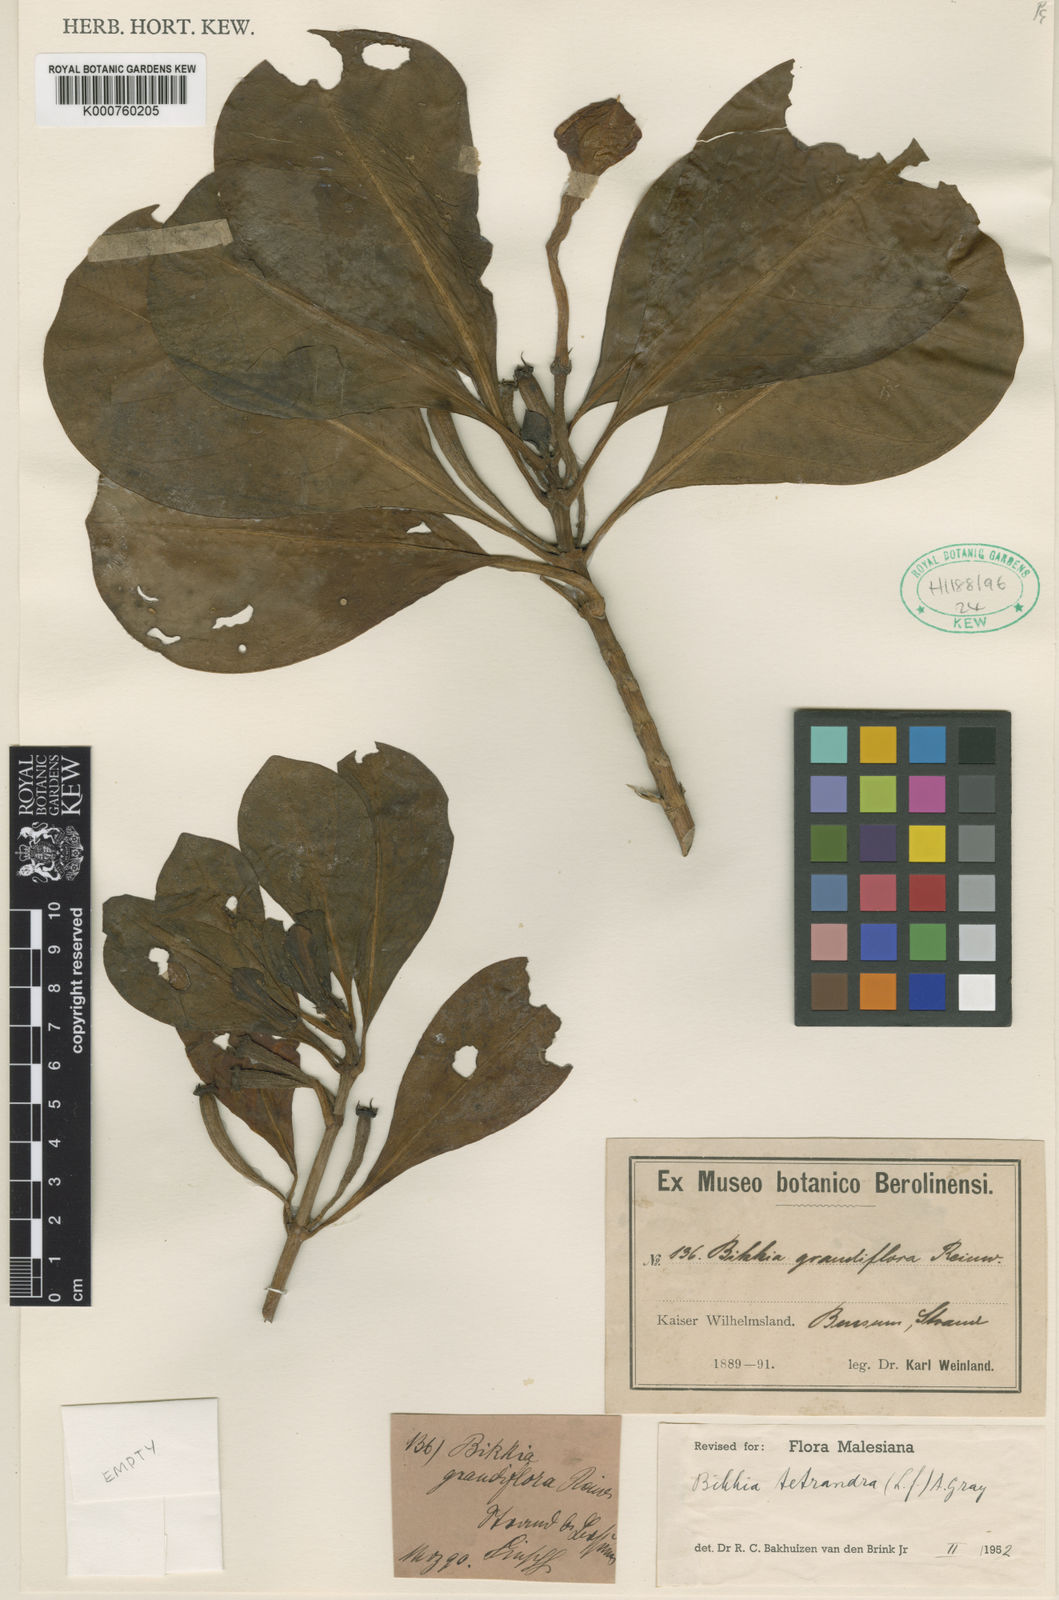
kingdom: Plantae
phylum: Tracheophyta
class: Magnoliopsida
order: Gentianales
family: Rubiaceae
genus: Bikkia
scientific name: Bikkia
